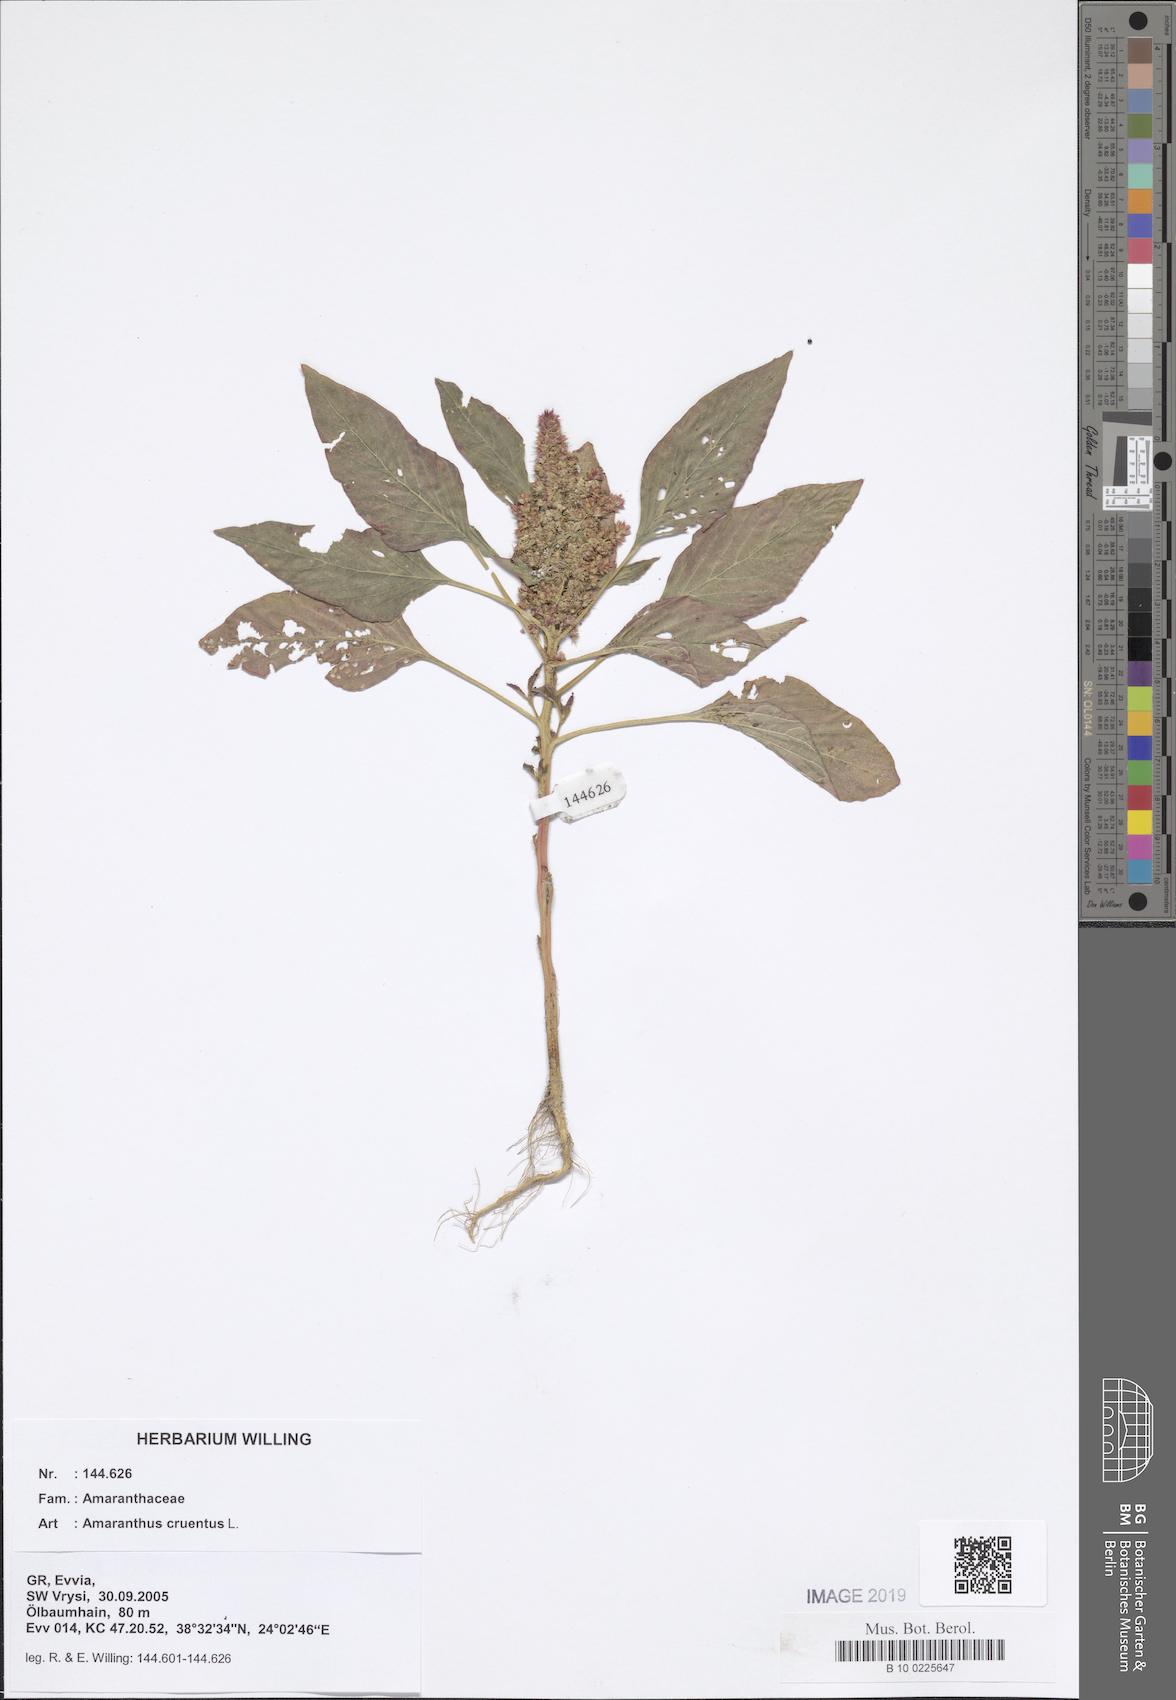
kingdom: Plantae
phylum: Tracheophyta
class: Magnoliopsida
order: Caryophyllales
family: Amaranthaceae
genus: Amaranthus
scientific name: Amaranthus cruentus
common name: Purple amaranth
